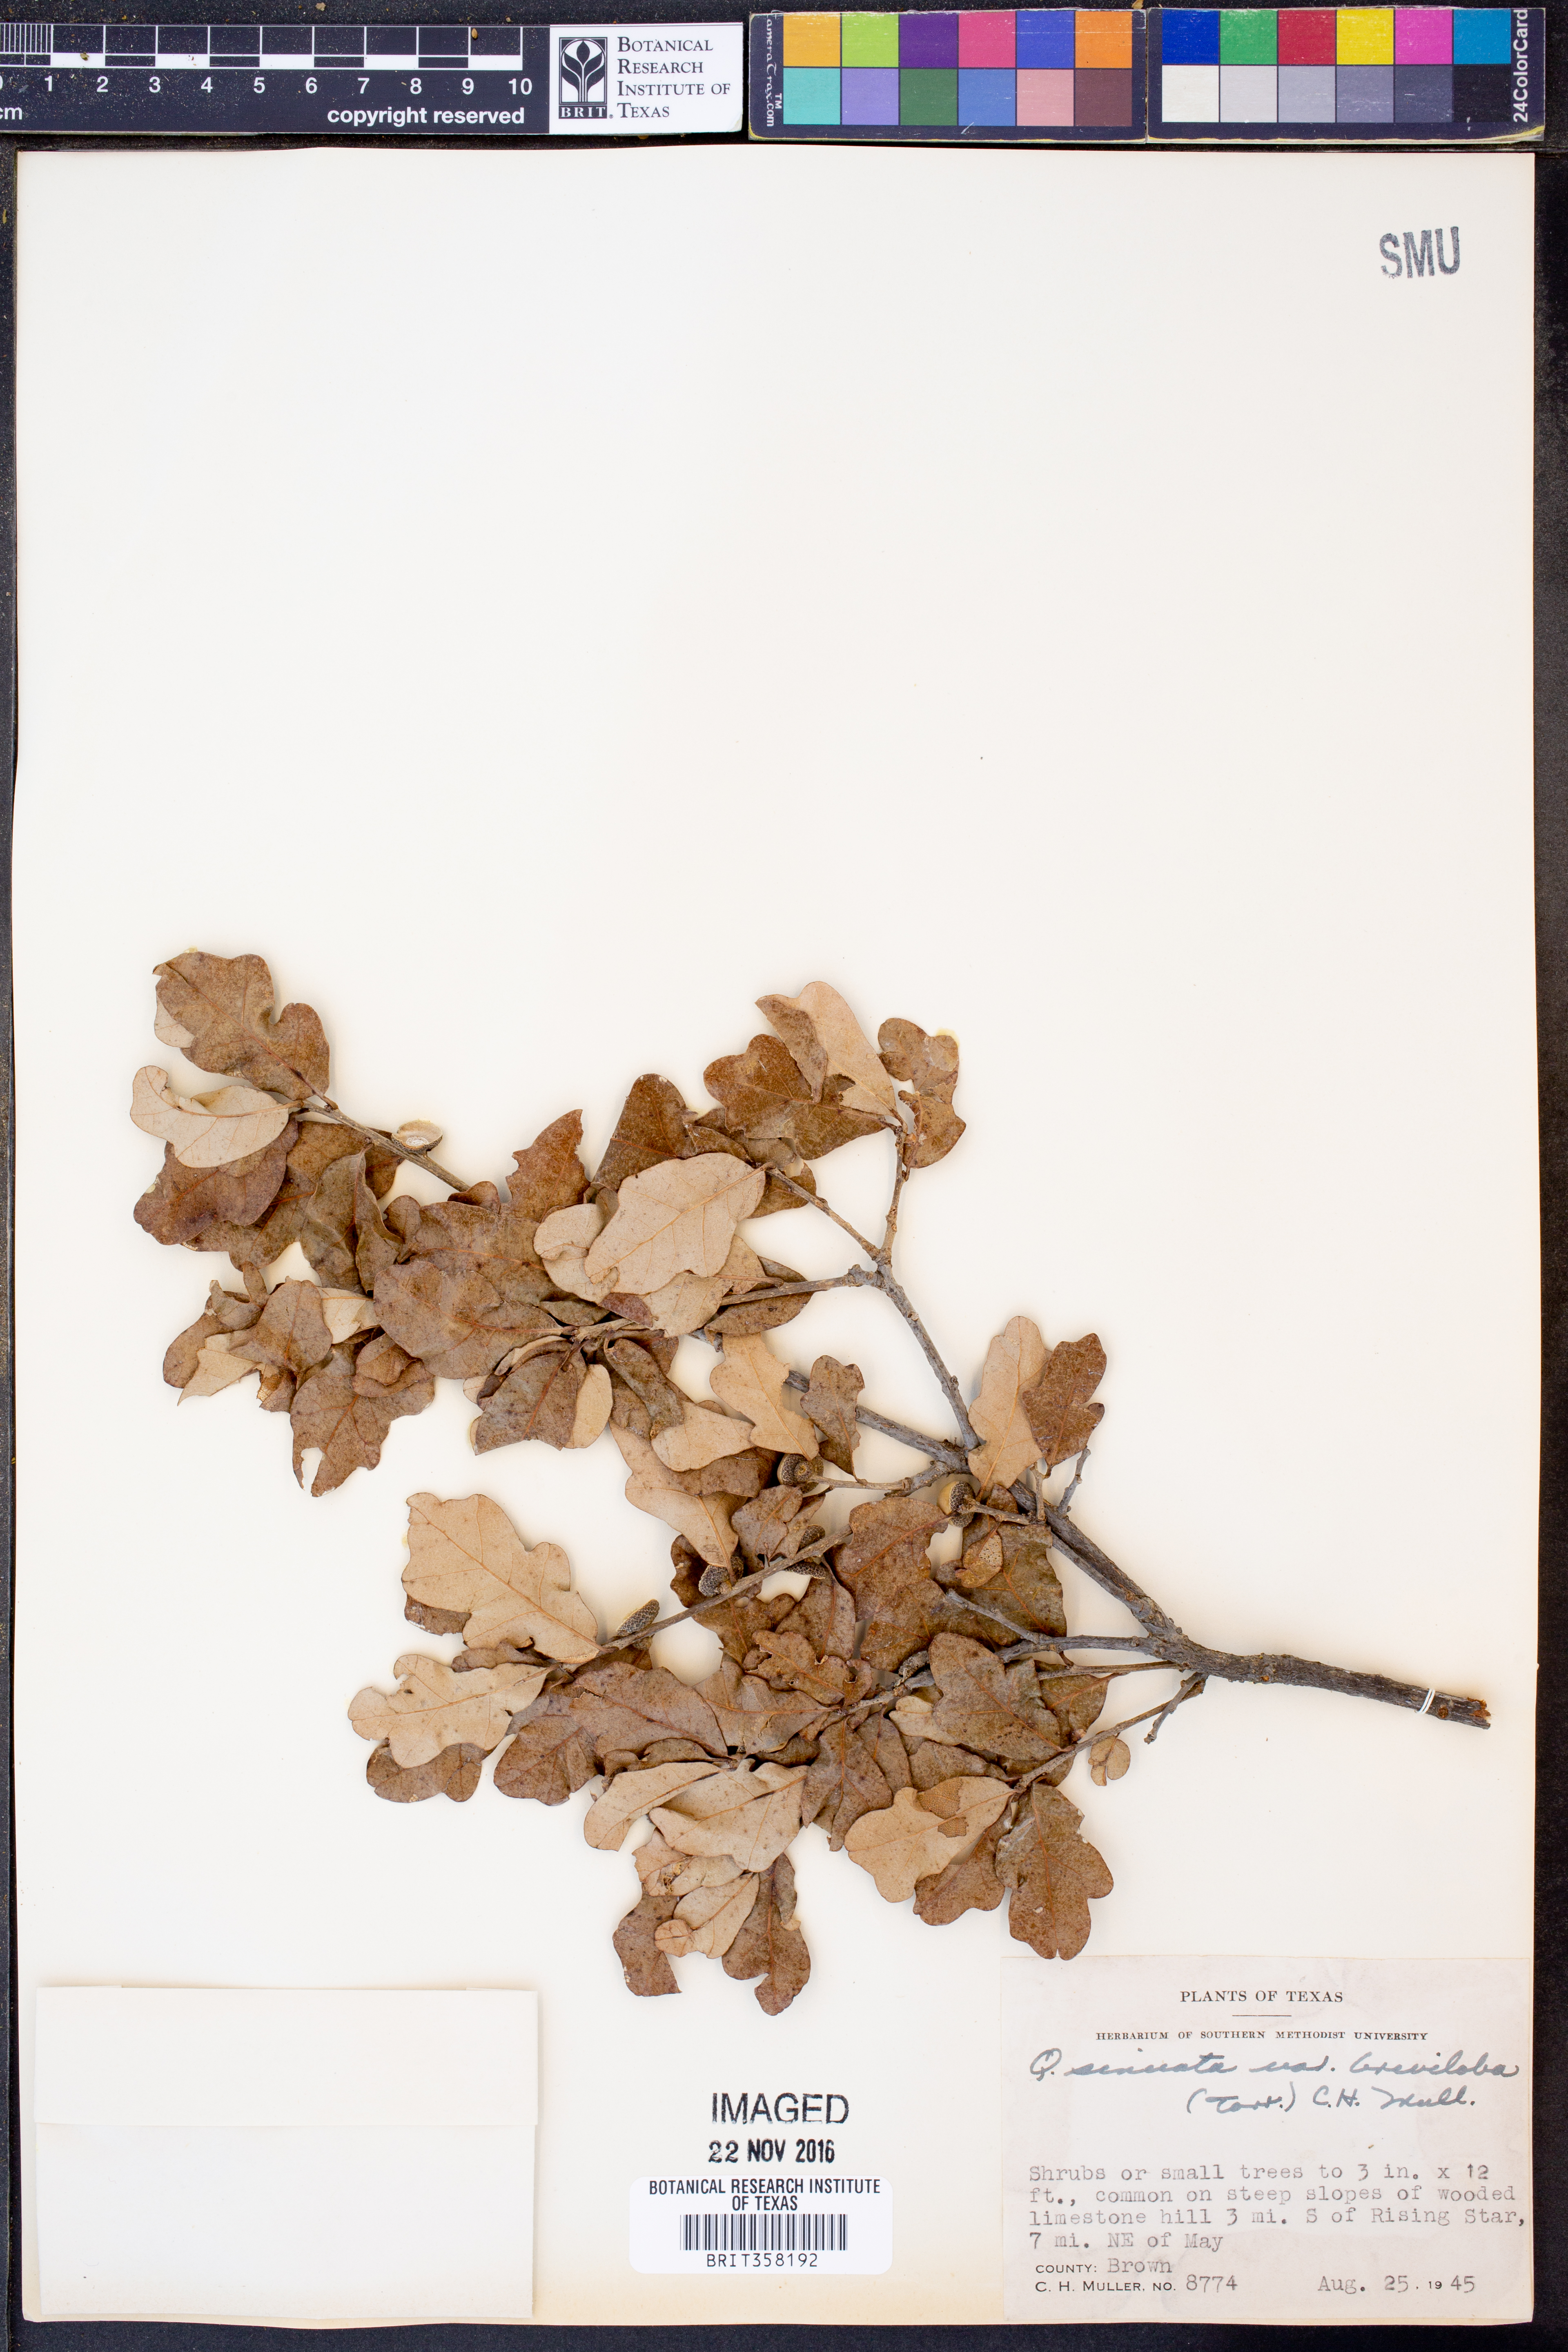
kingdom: Plantae
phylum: Tracheophyta
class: Magnoliopsida
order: Fagales
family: Fagaceae
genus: Quercus
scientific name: Quercus sinuata
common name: Durand oak
